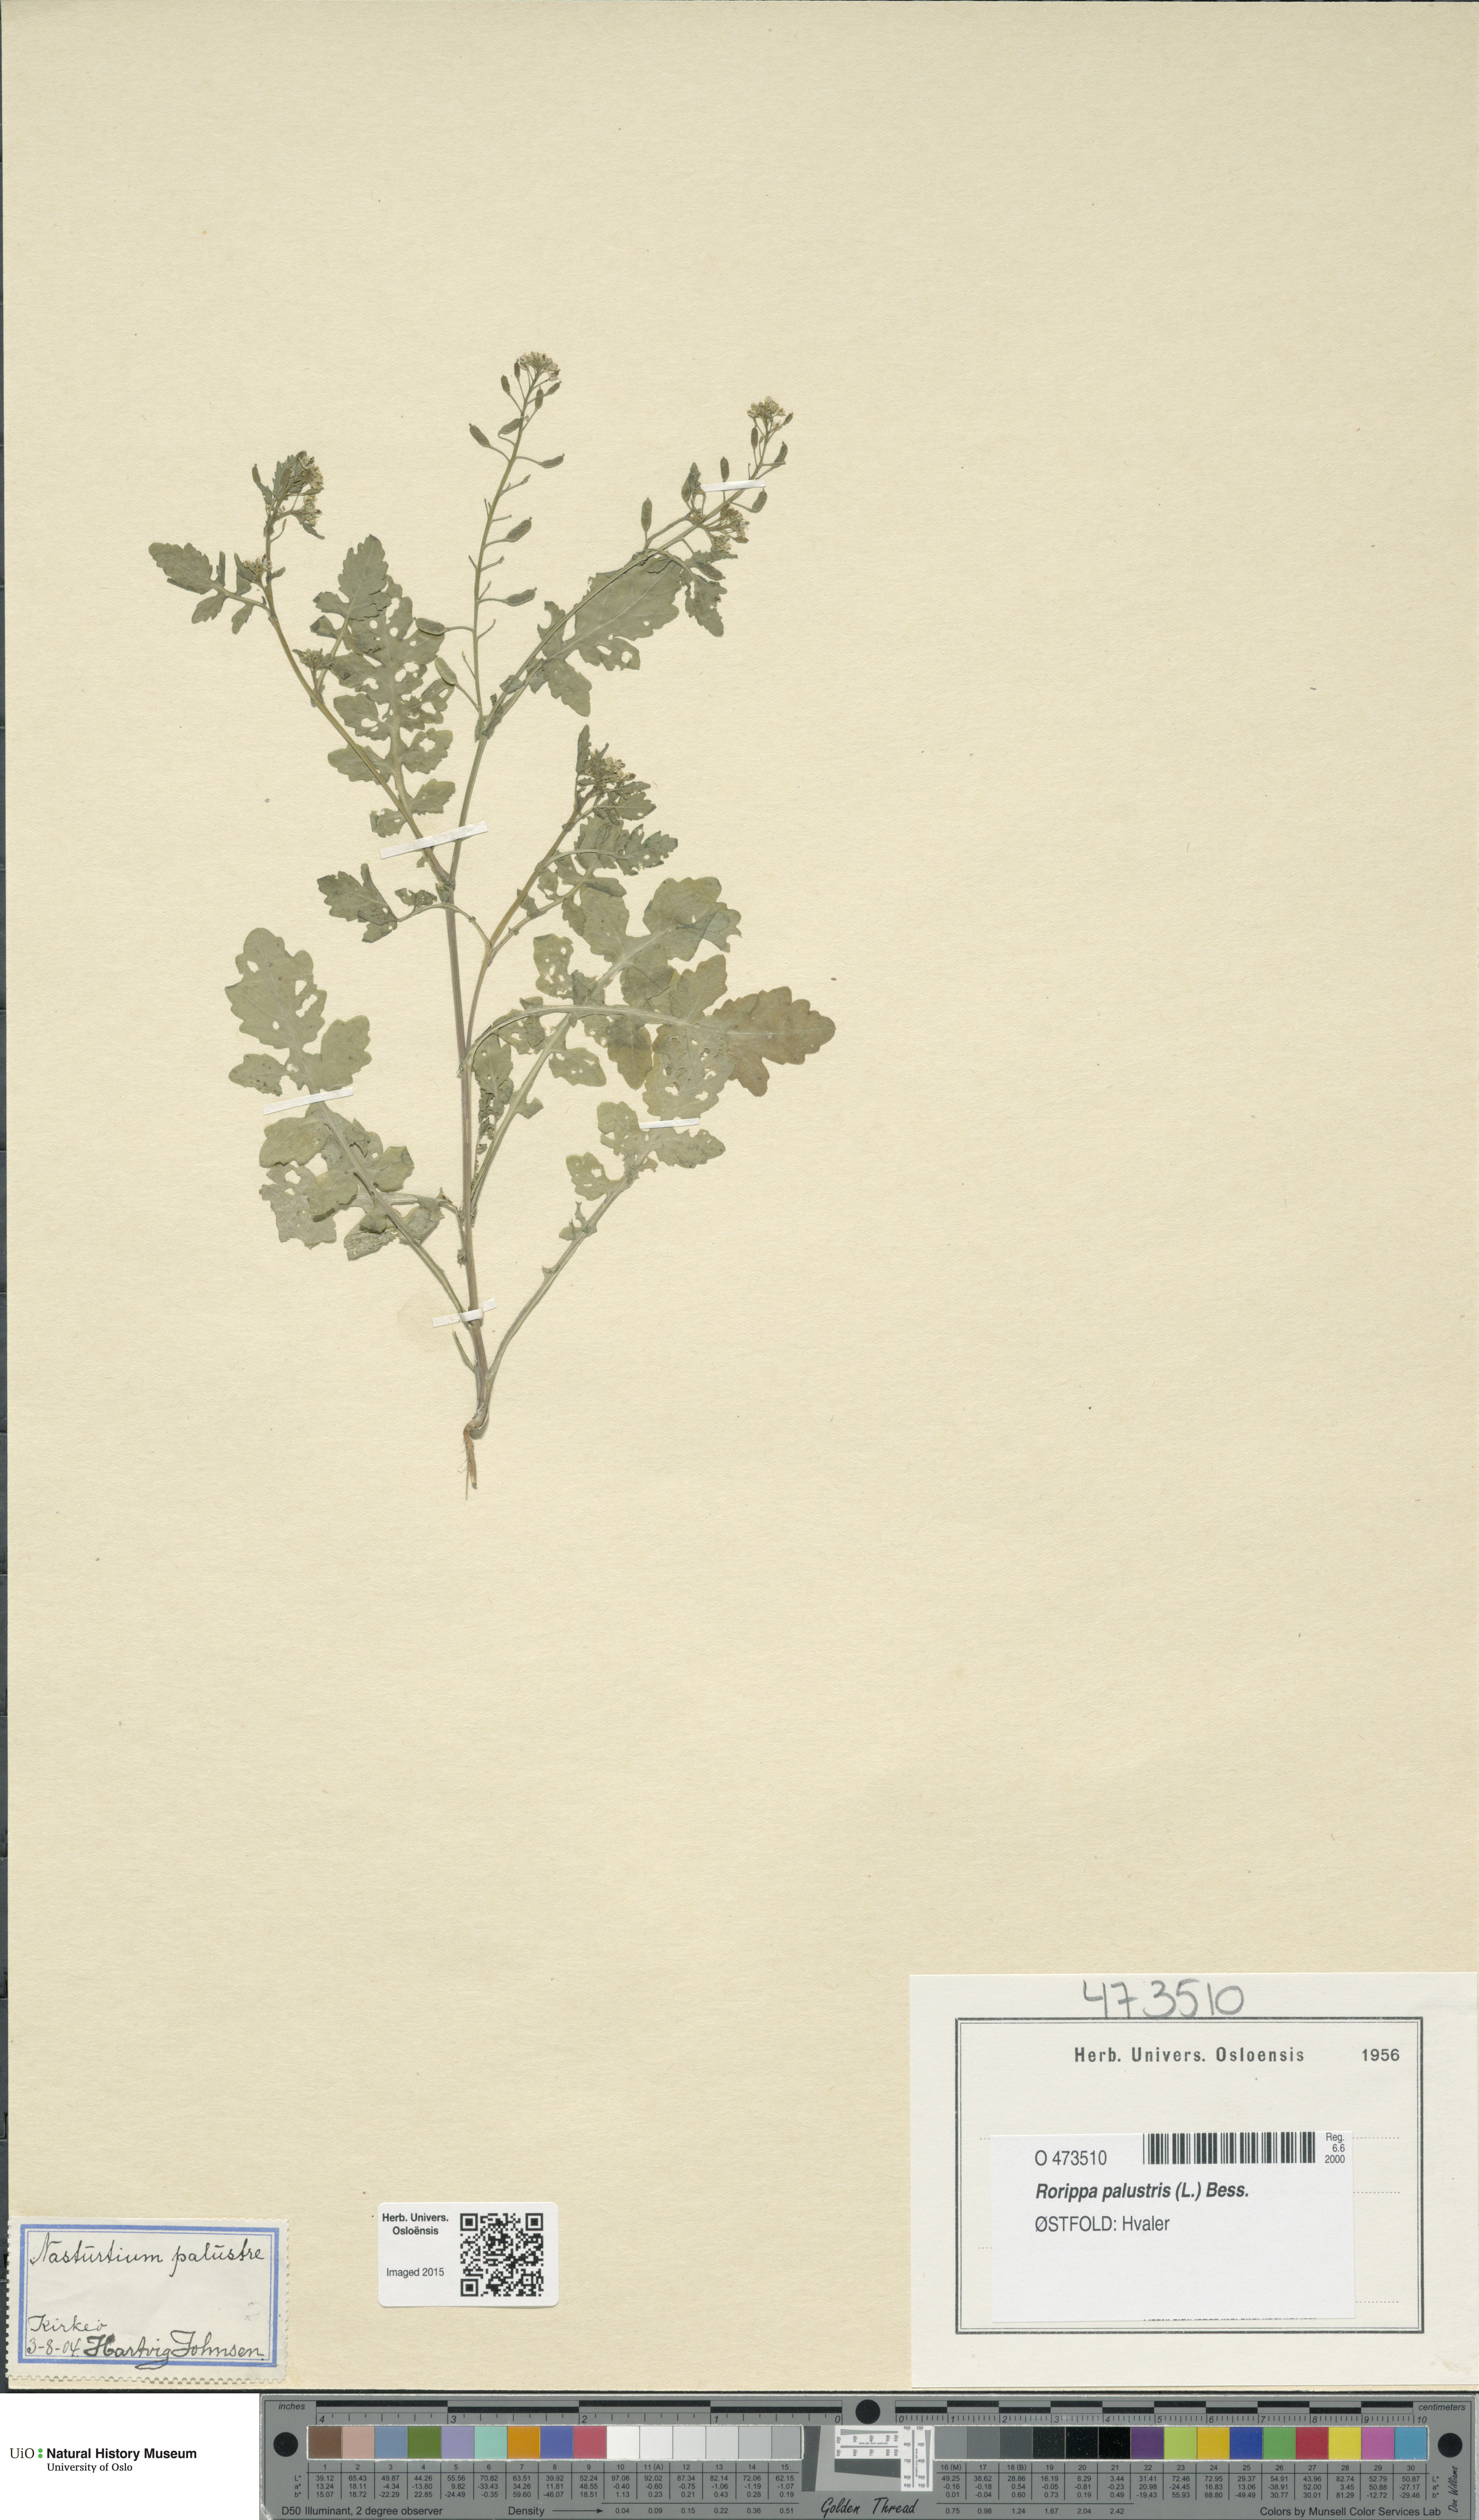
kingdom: Plantae
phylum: Tracheophyta
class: Magnoliopsida
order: Brassicales
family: Brassicaceae
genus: Rorippa
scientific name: Rorippa palustris
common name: Marsh yellow-cress
